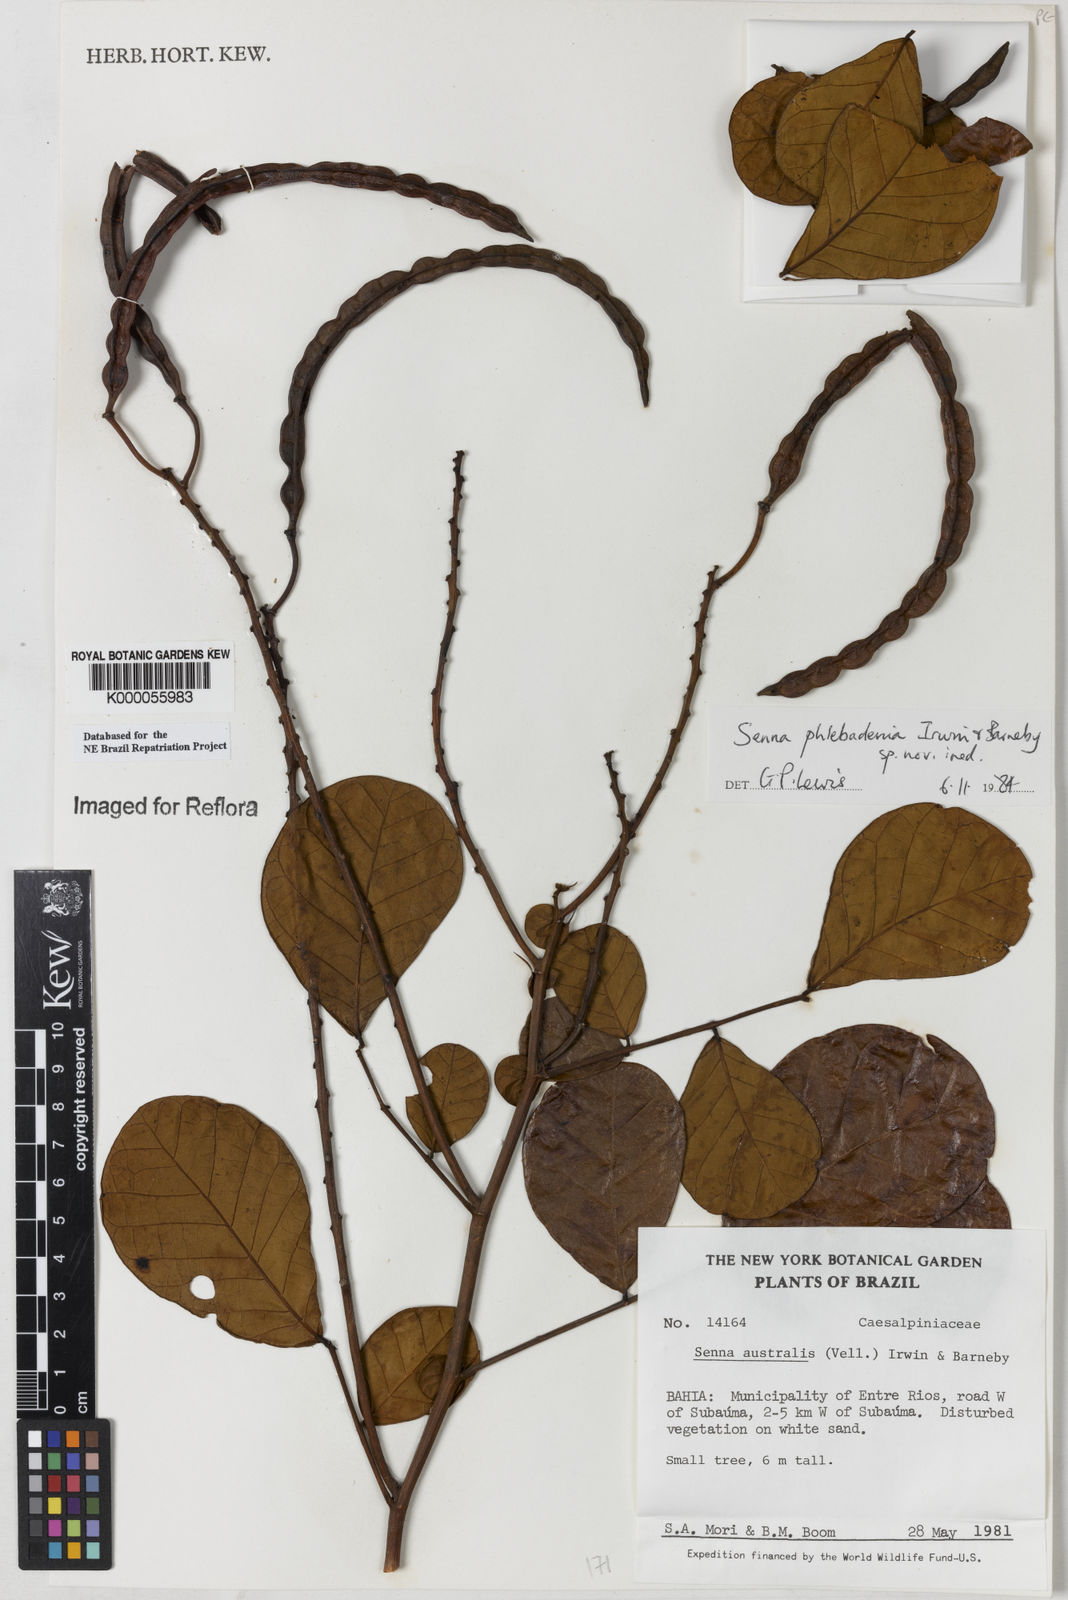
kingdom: Plantae
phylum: Tracheophyta
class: Magnoliopsida
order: Fabales
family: Fabaceae
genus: Senna
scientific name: Senna phlebadenia
